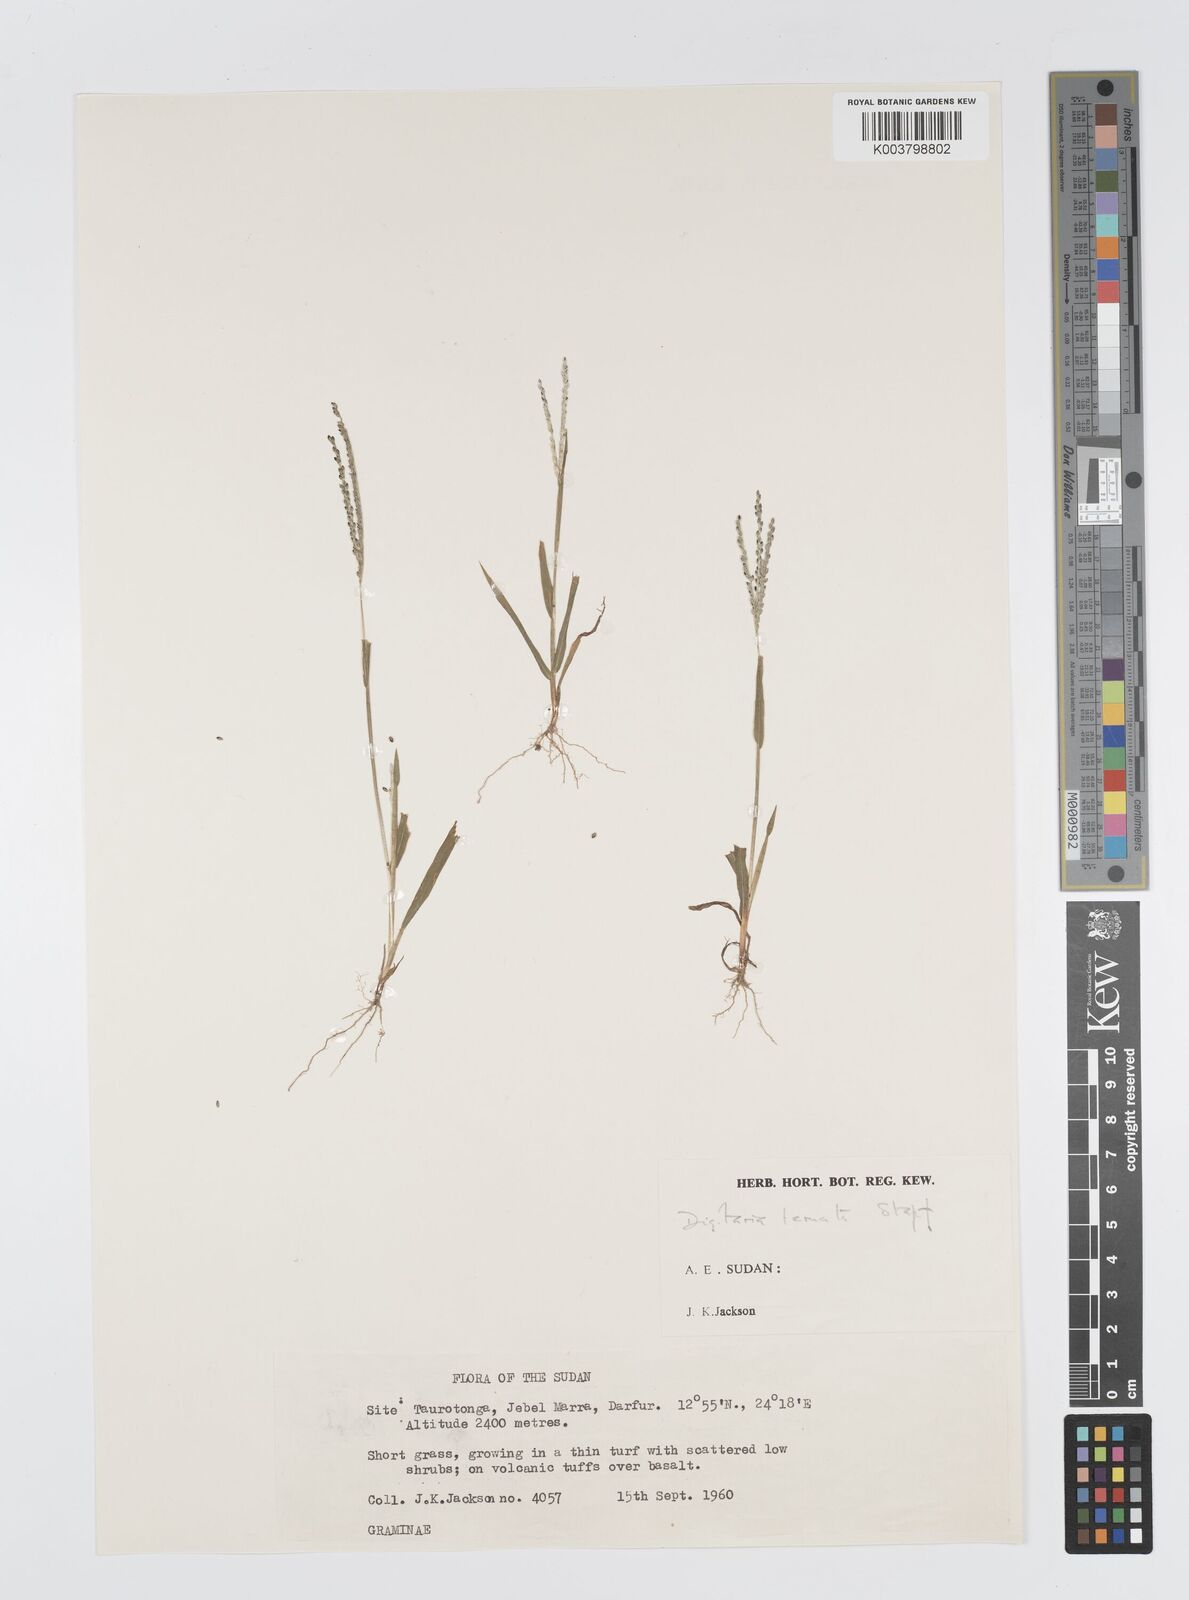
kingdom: Plantae
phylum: Tracheophyta
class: Liliopsida
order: Poales
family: Poaceae
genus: Digitaria
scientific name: Digitaria ternata
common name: Blackseed crabgrass
